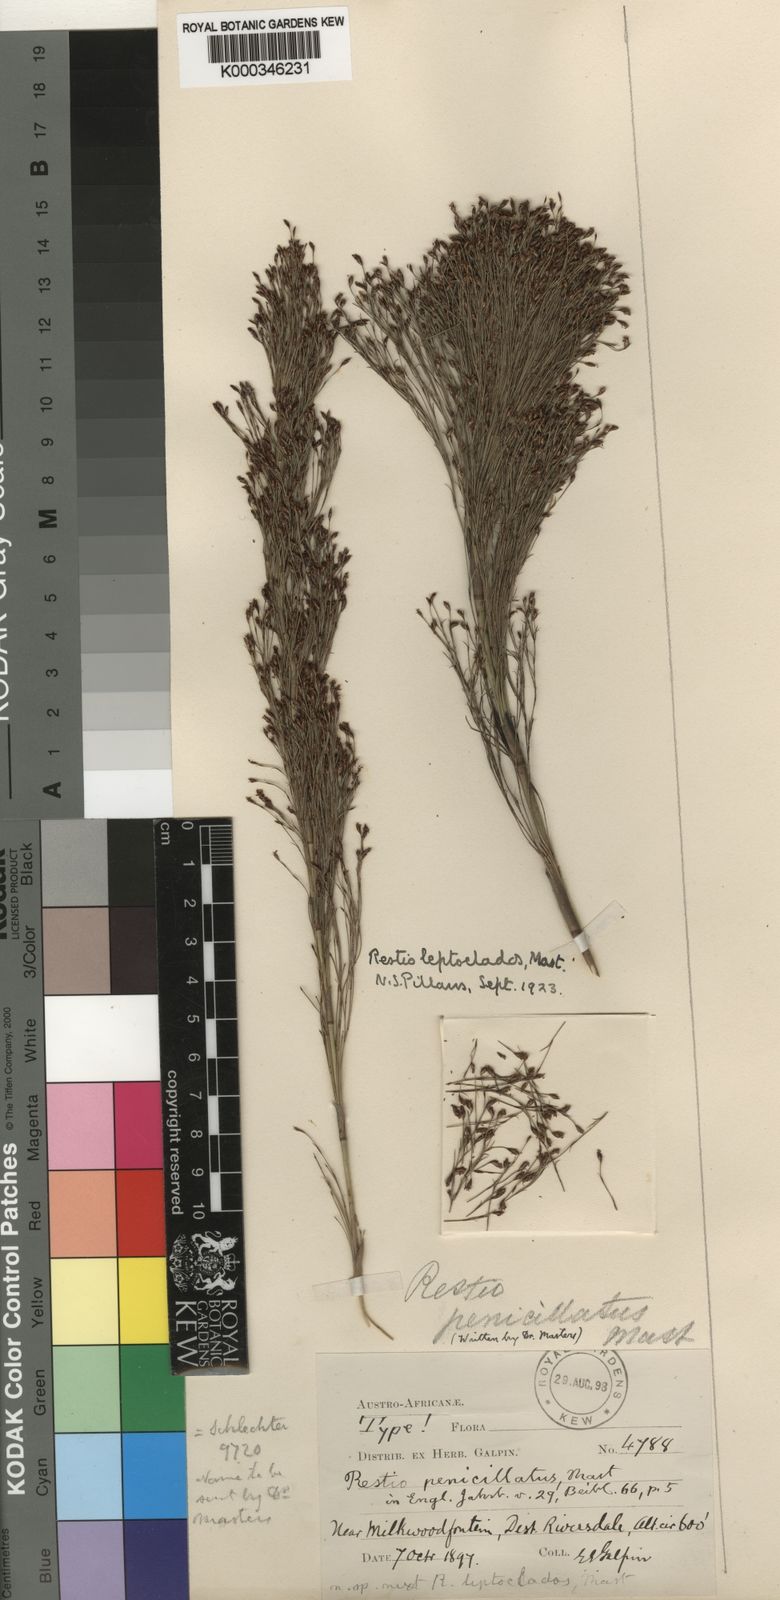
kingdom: Plantae
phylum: Tracheophyta
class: Liliopsida
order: Poales
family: Restionaceae
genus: Restio
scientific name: Restio leptoclados
